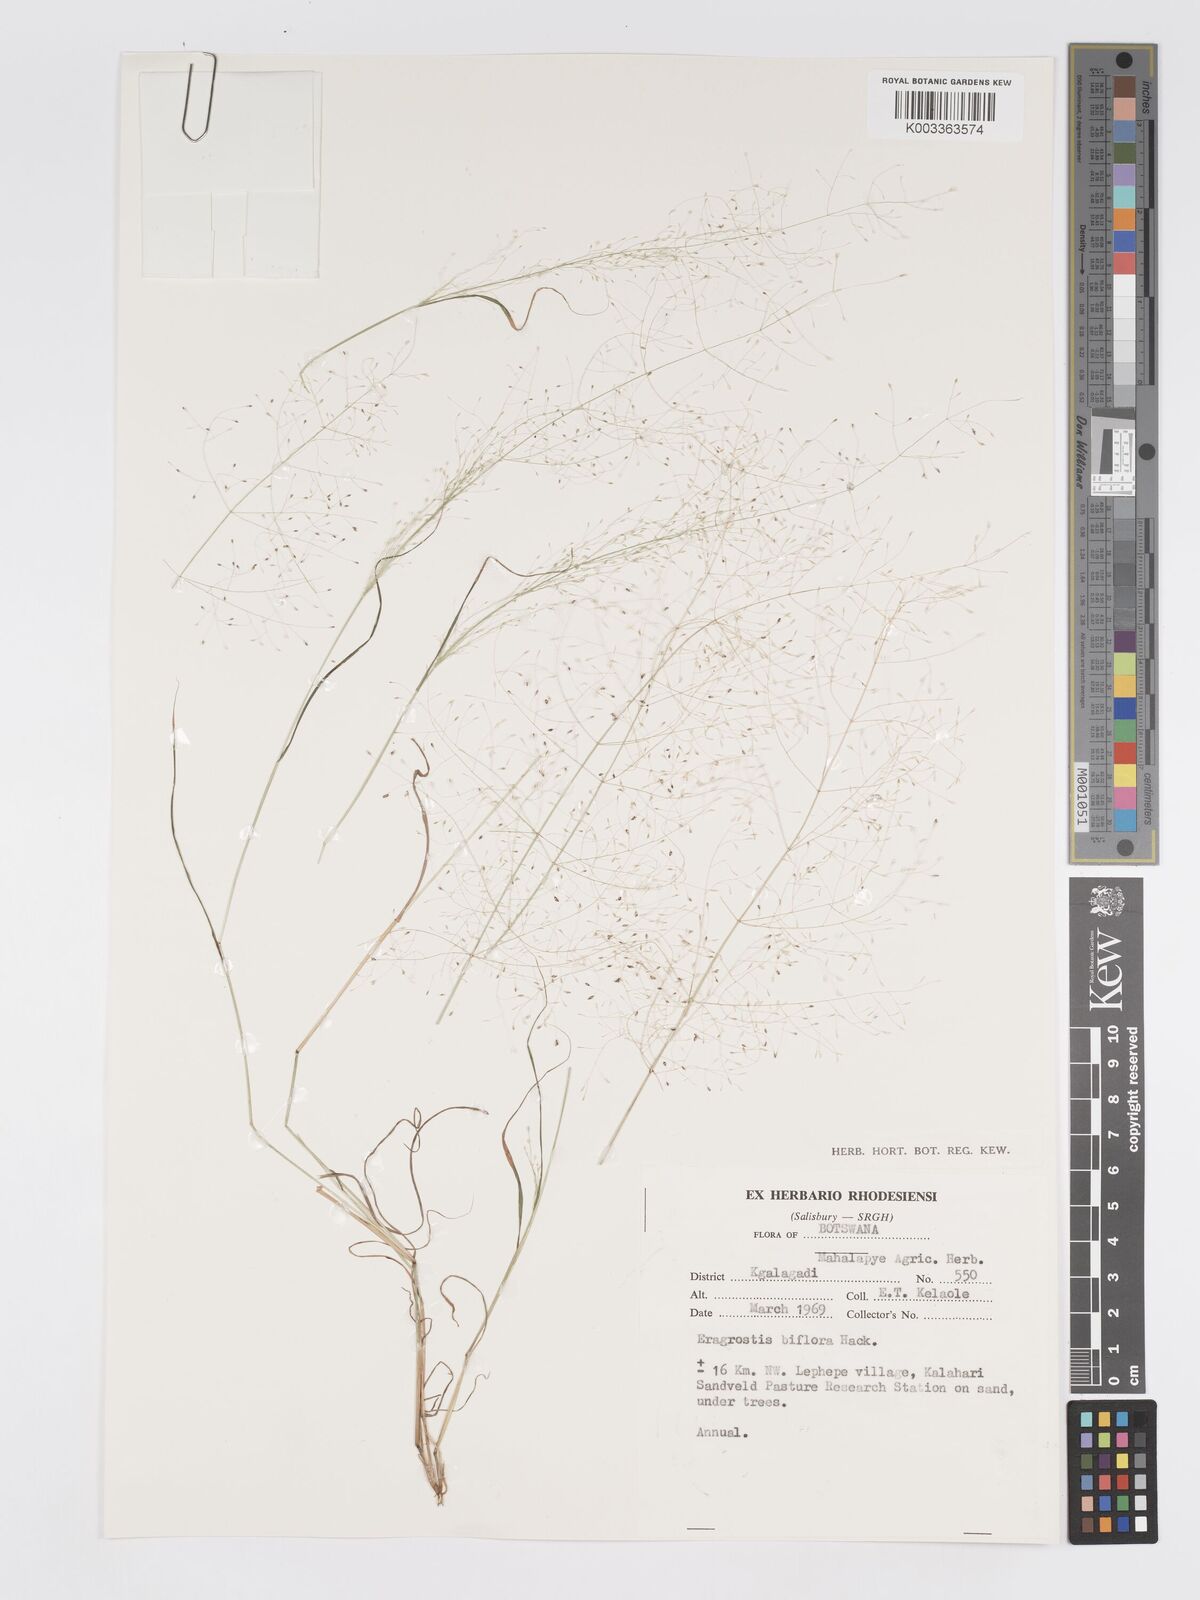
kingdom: Plantae
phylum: Tracheophyta
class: Liliopsida
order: Poales
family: Poaceae
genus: Eragrostis
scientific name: Eragrostis biflora
